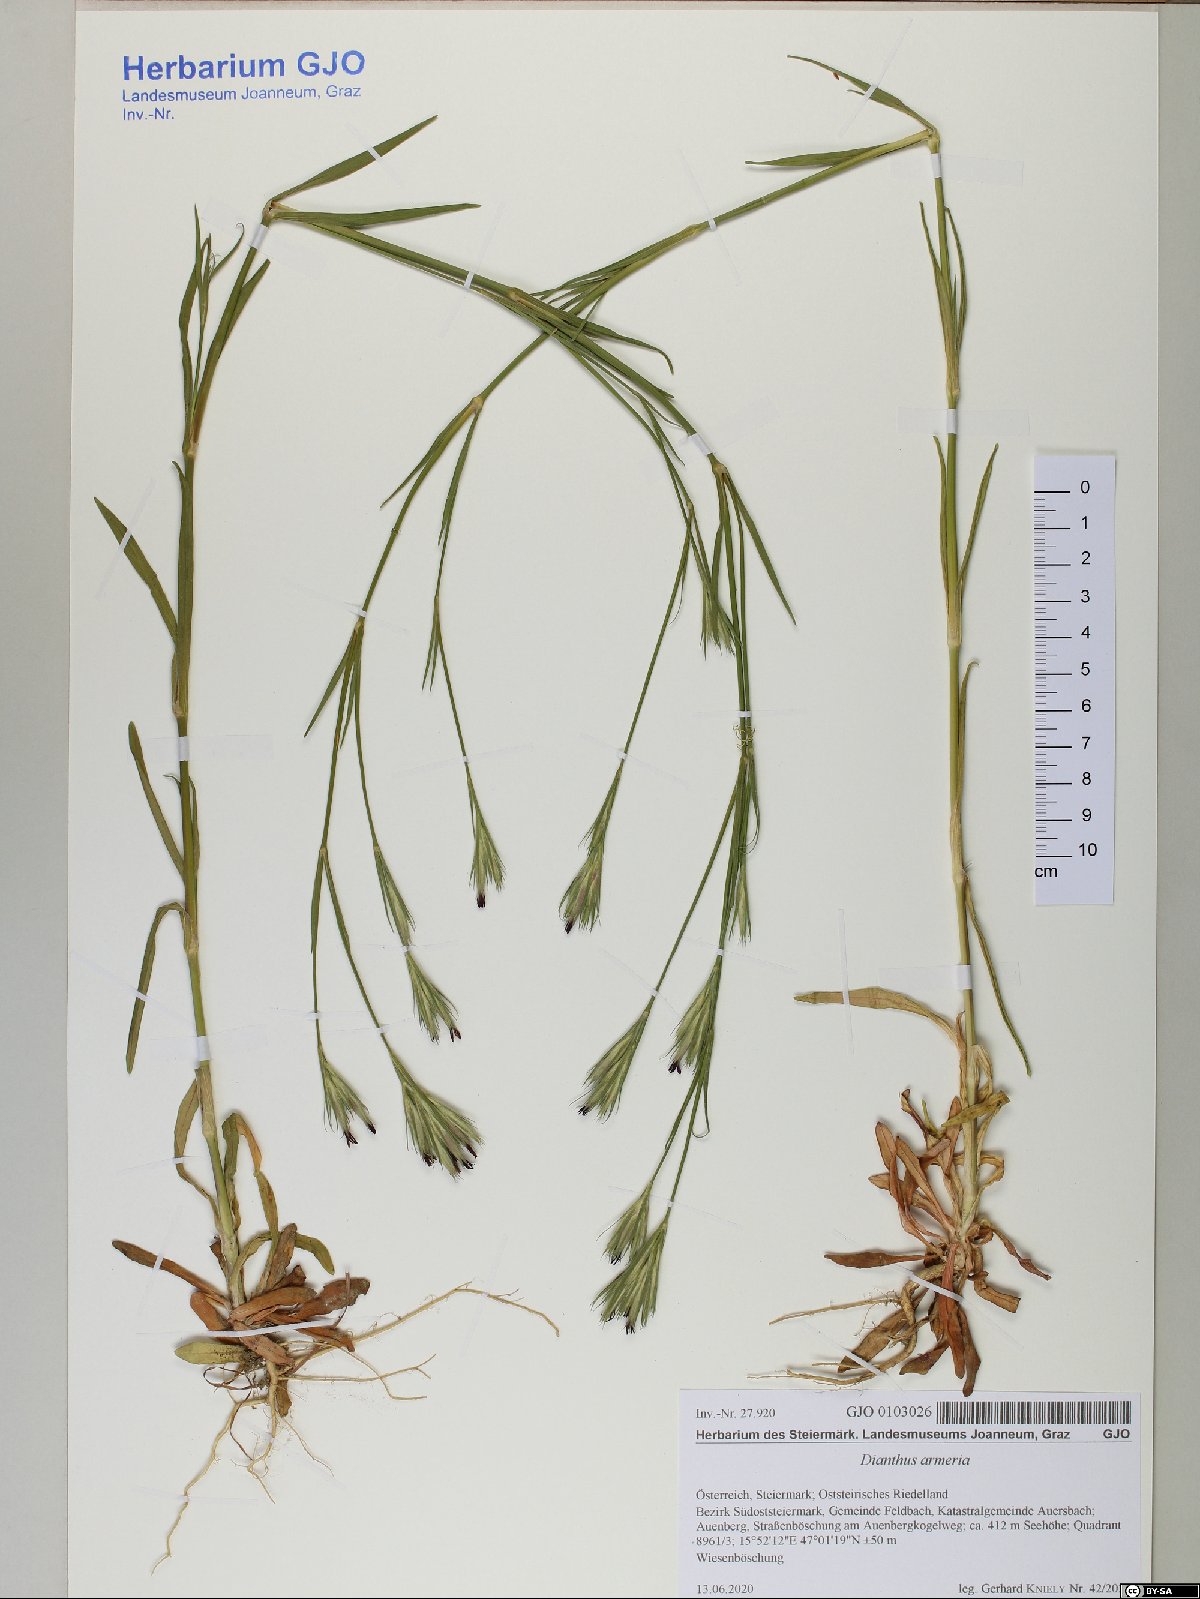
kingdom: Plantae
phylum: Tracheophyta
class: Magnoliopsida
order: Caryophyllales
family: Caryophyllaceae
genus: Dianthus
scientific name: Dianthus armeria
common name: Deptford pink
